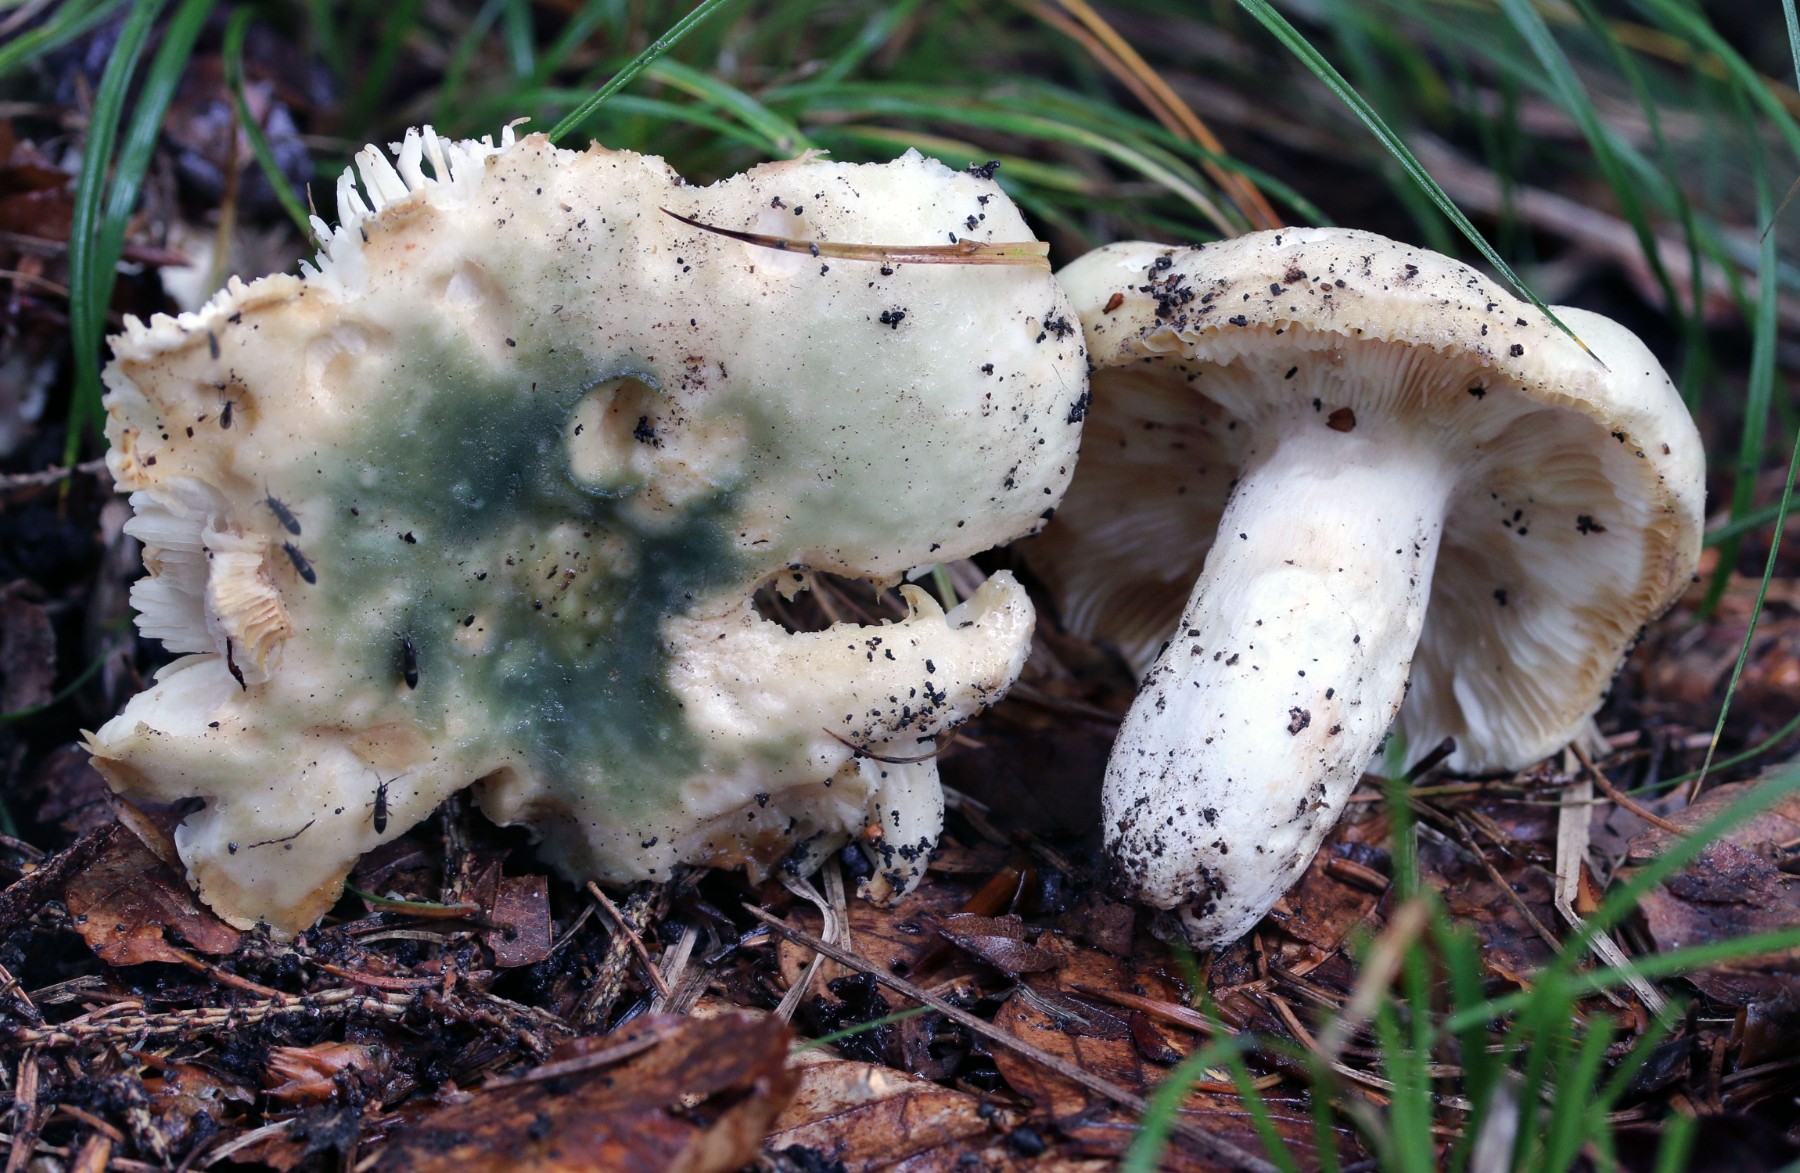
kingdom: Fungi
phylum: Basidiomycota
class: Agaricomycetes
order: Russulales
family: Russulaceae
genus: Russula
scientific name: Russula virescens
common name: spanskgrøn skørhat
